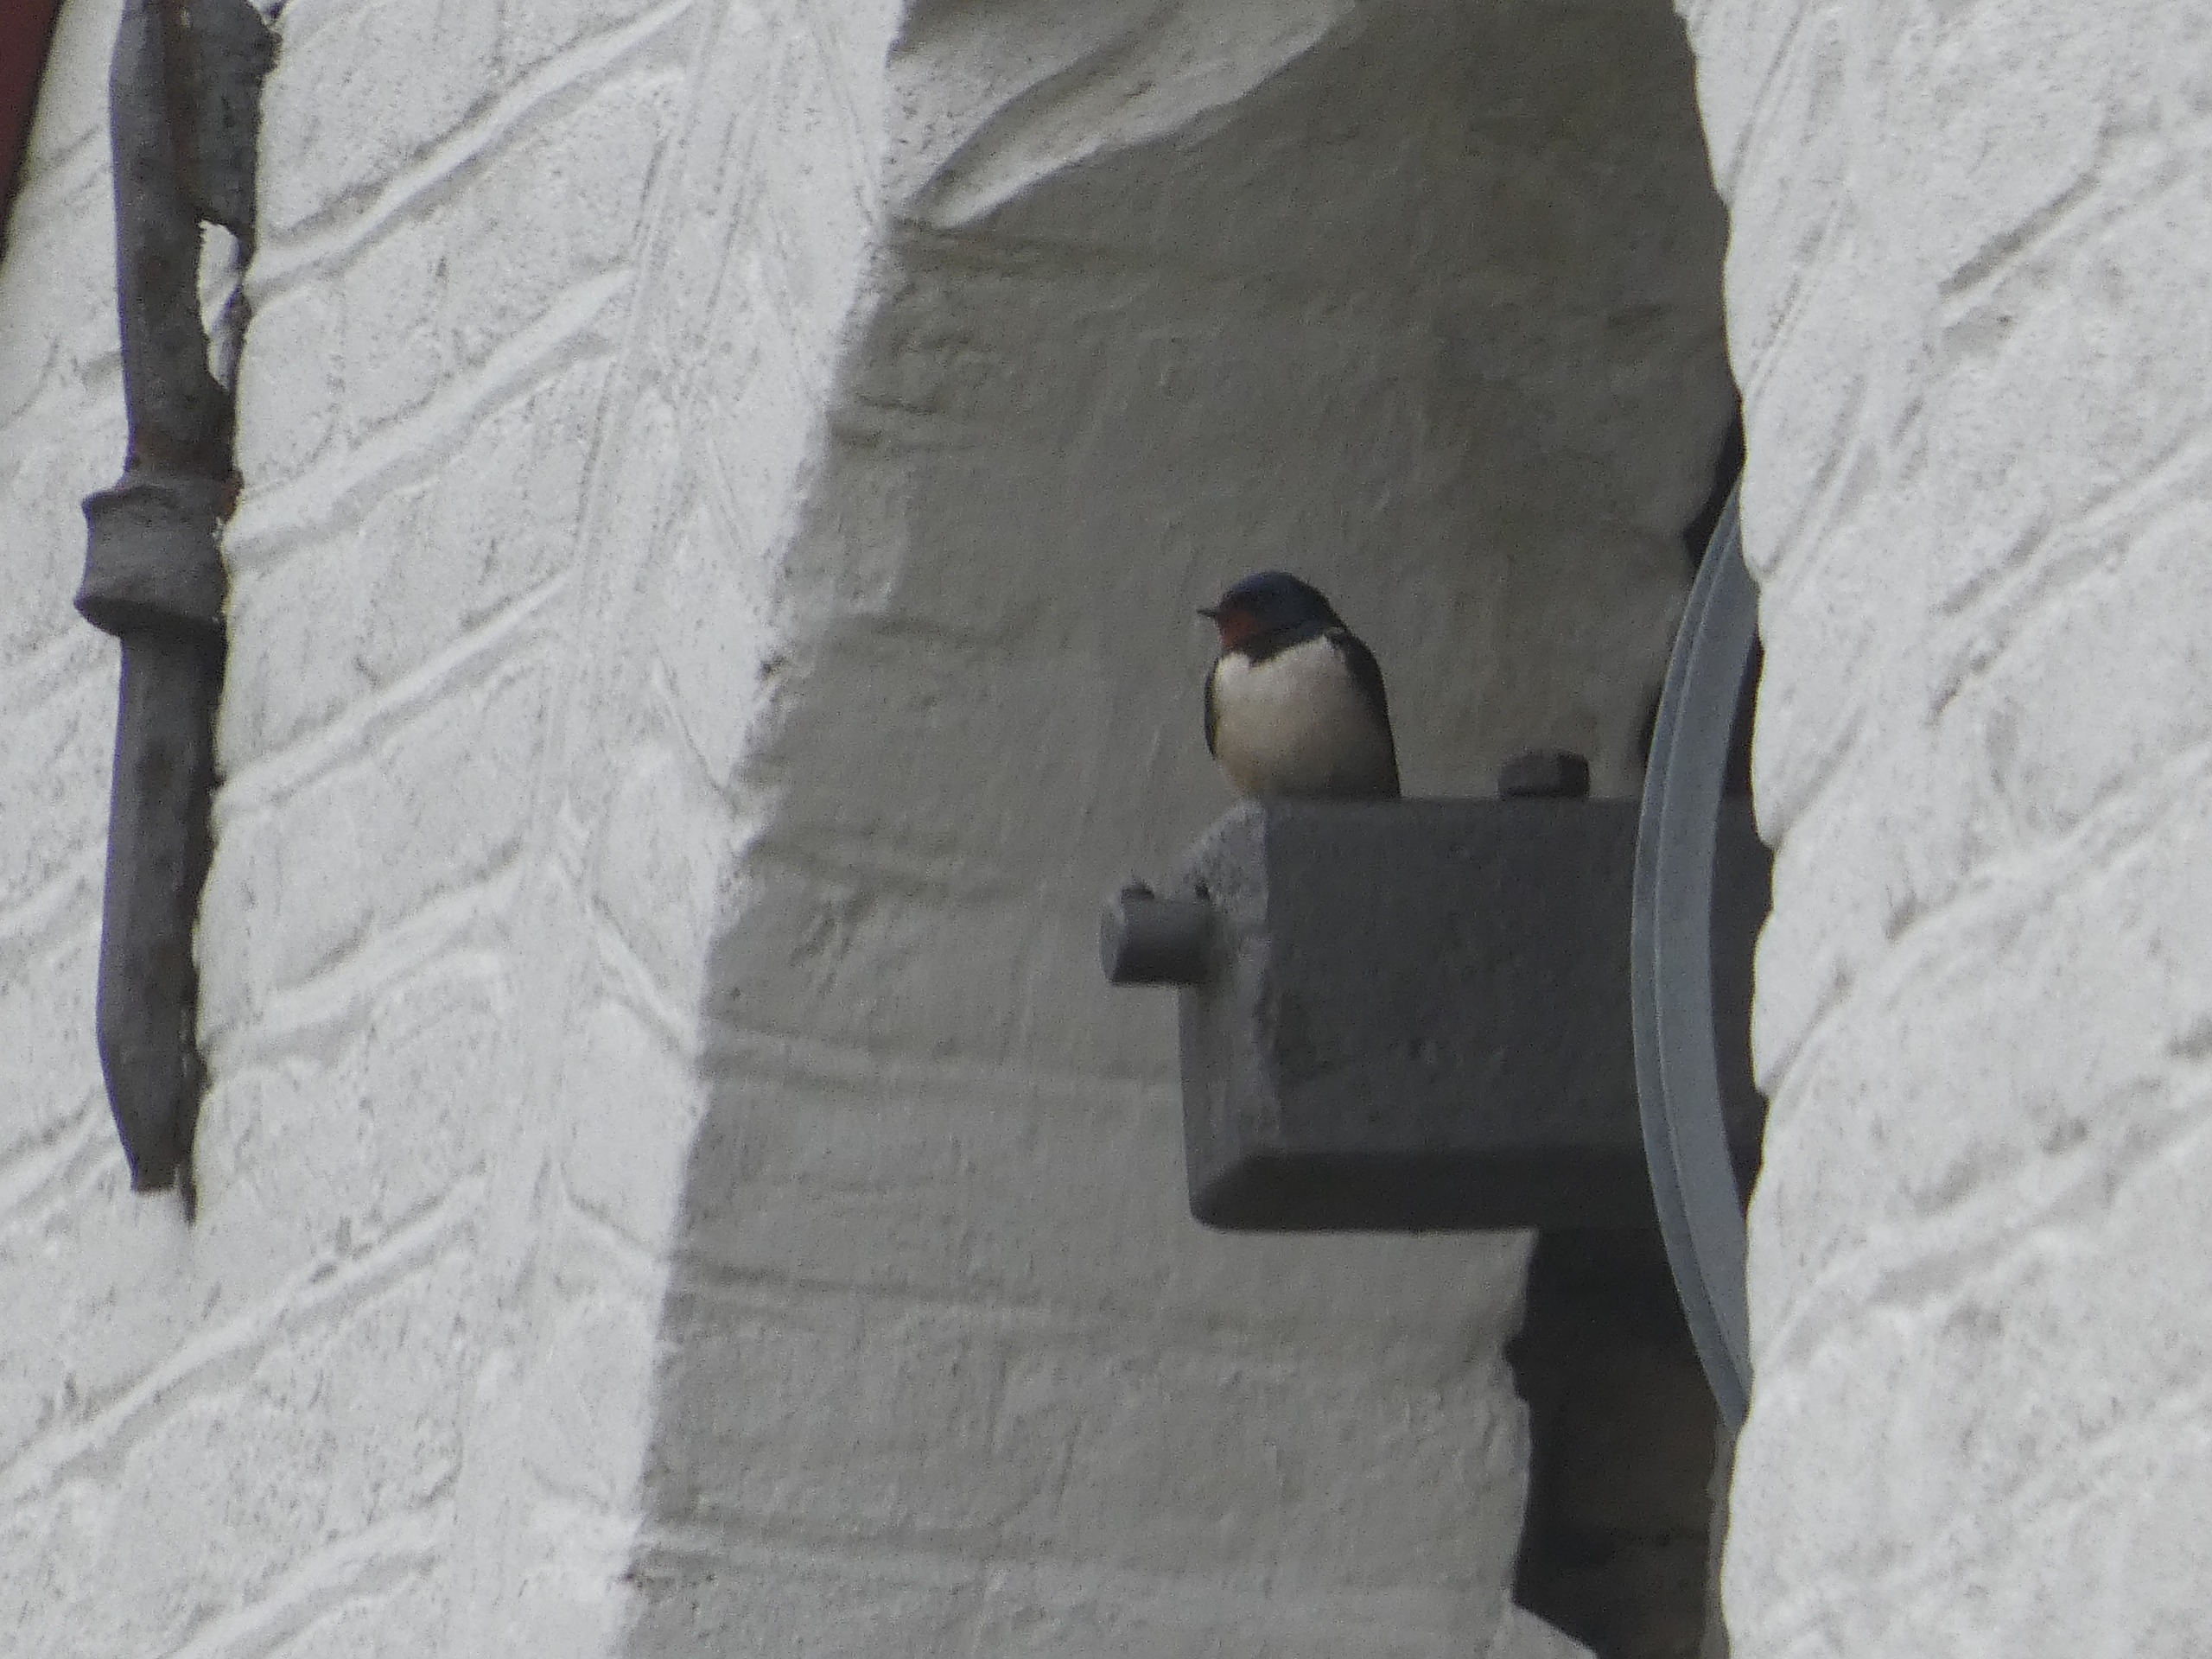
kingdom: Animalia
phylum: Chordata
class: Aves
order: Passeriformes
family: Hirundinidae
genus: Hirundo
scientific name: Hirundo rustica
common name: Landsvale
